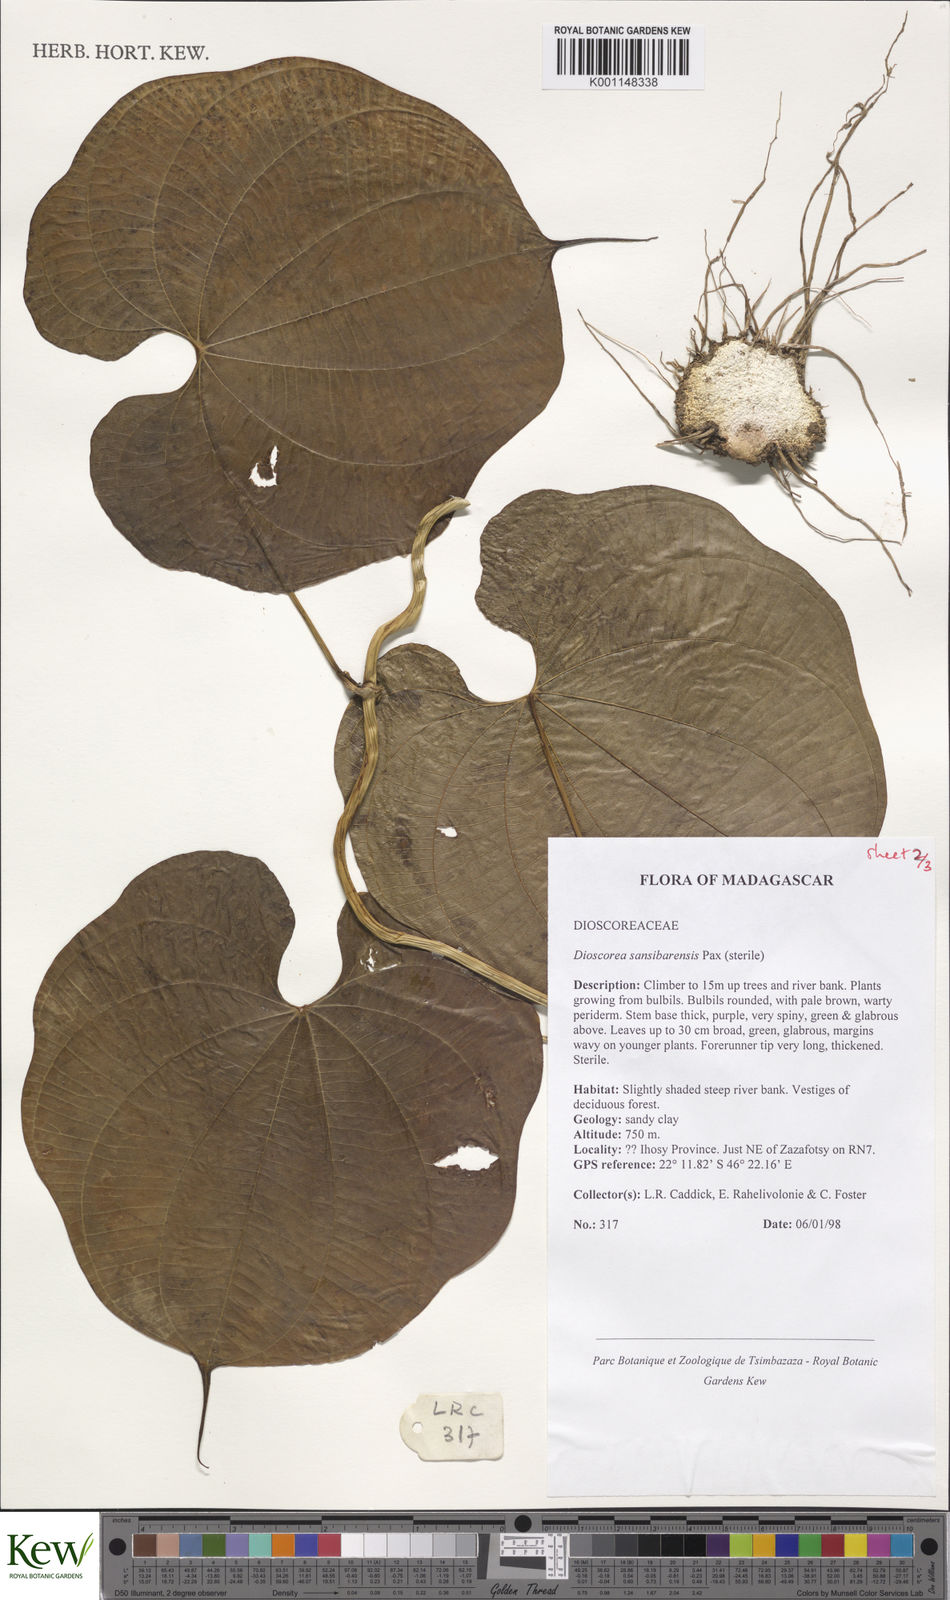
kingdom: Plantae
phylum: Tracheophyta
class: Liliopsida
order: Dioscoreales
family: Dioscoreaceae
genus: Dioscorea
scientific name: Dioscorea sansibarensis
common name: Zanzibar yam
